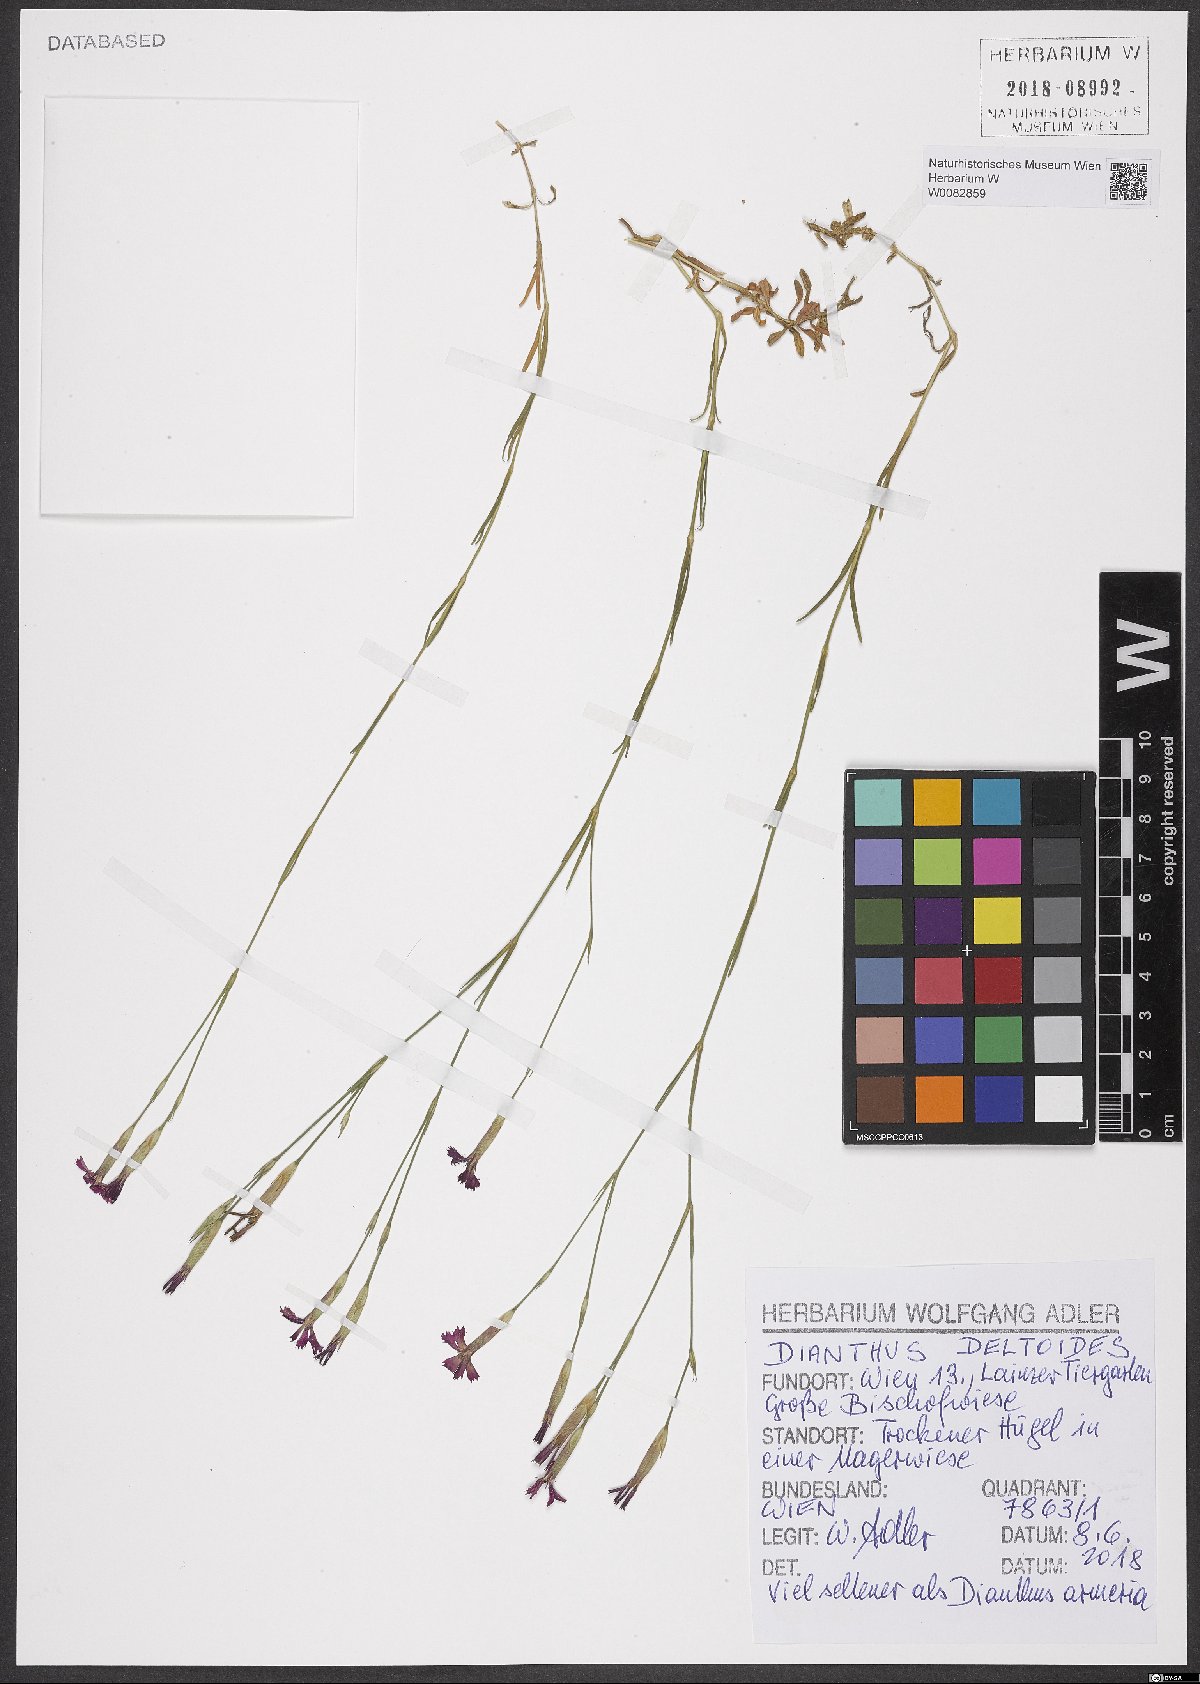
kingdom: Plantae
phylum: Tracheophyta
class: Magnoliopsida
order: Caryophyllales
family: Caryophyllaceae
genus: Dianthus
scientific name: Dianthus deltoides
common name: Maiden pink
